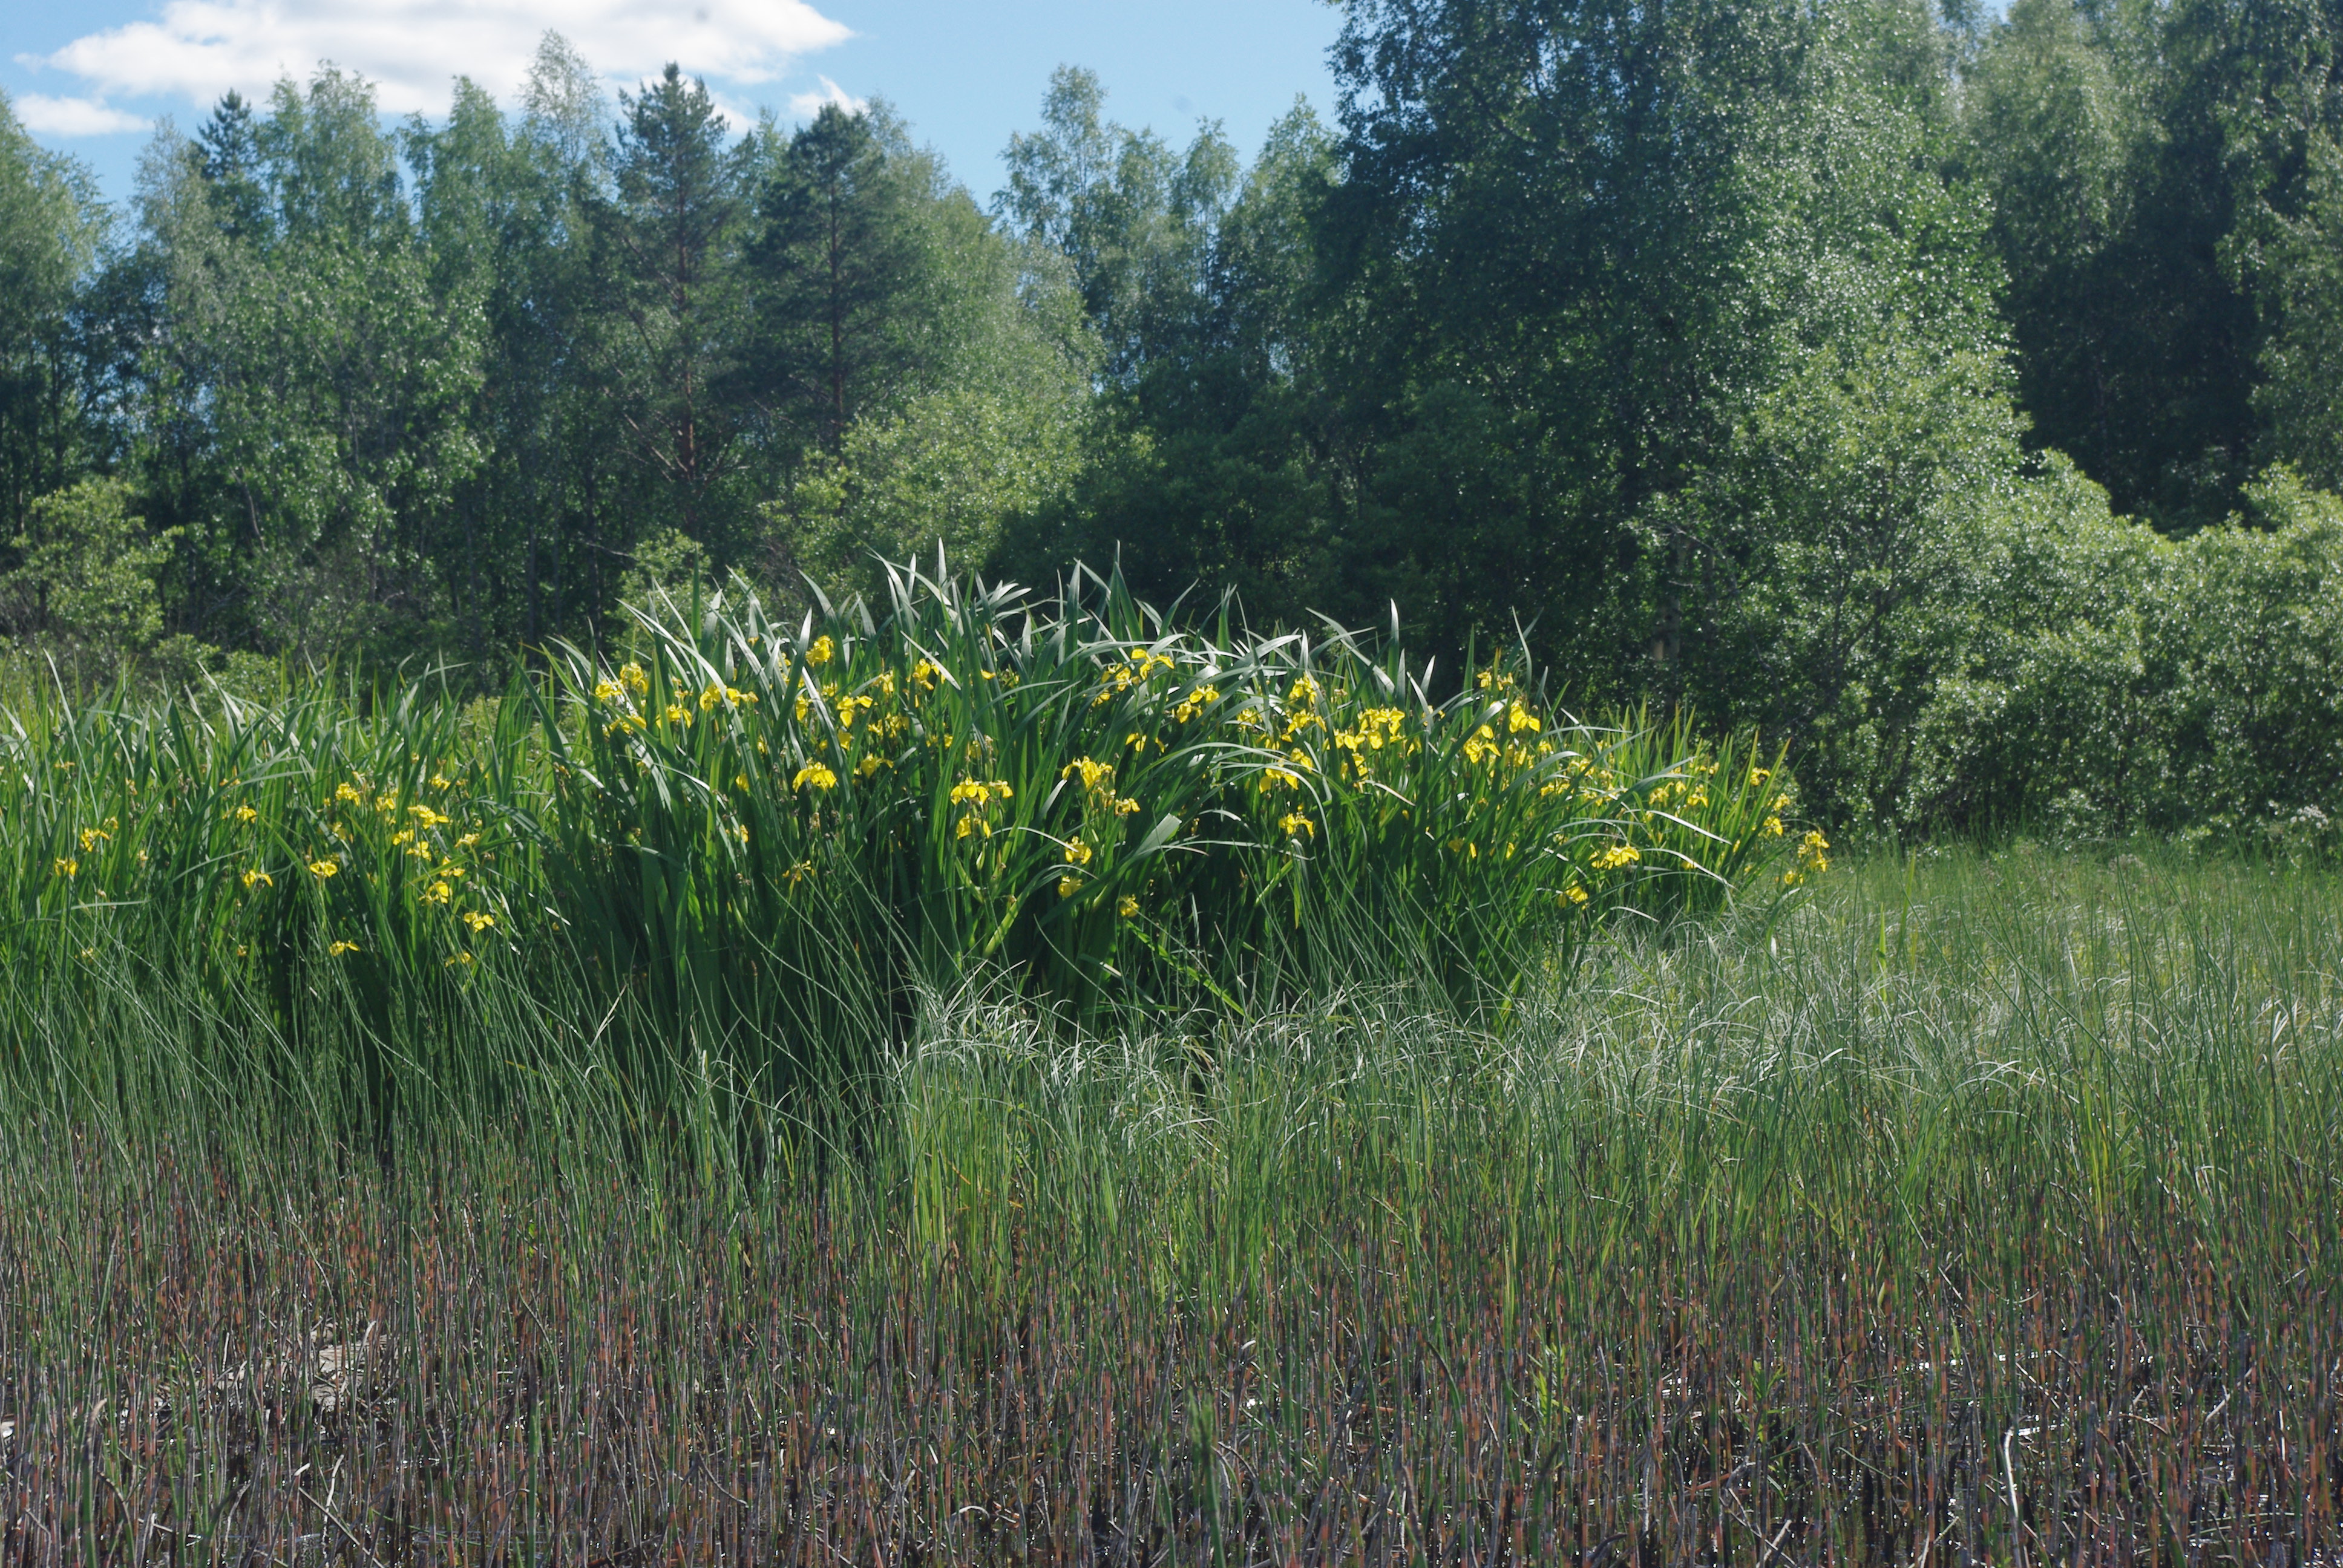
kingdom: Plantae
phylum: Tracheophyta
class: Liliopsida
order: Asparagales
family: Iridaceae
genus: Iris
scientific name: Iris pseudacorus
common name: Yellow flag
